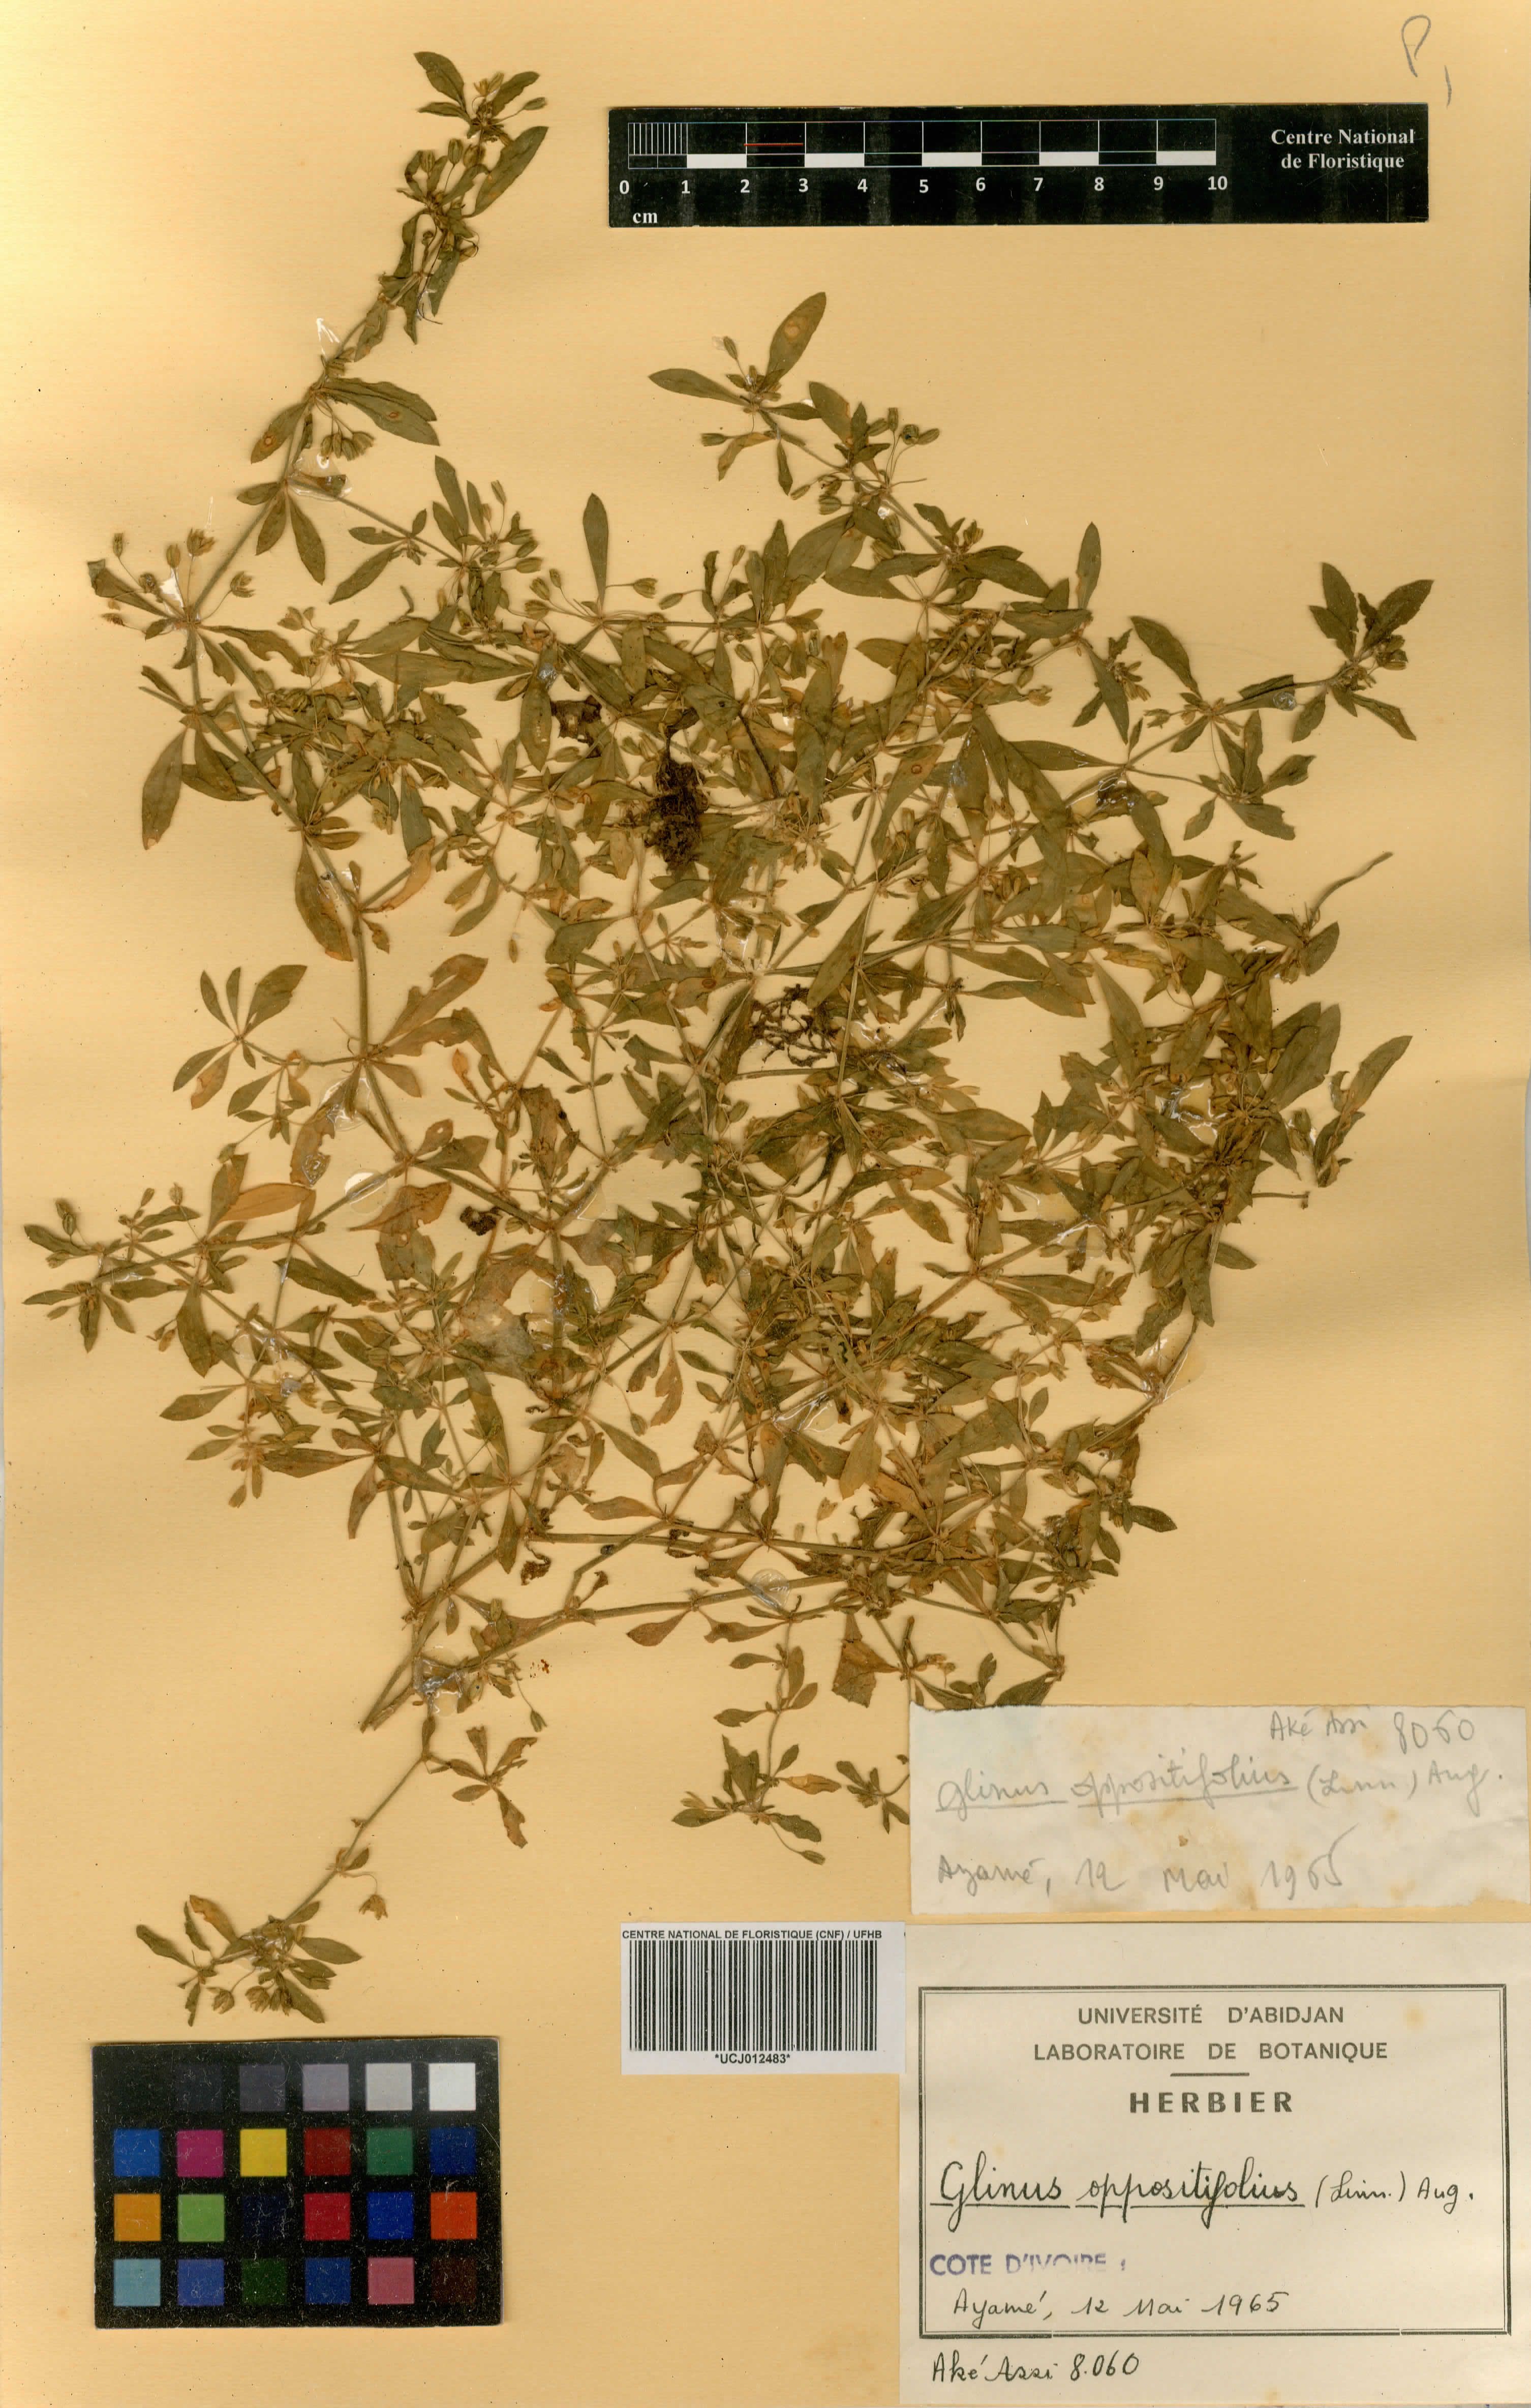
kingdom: Plantae
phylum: Tracheophyta
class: Magnoliopsida
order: Caryophyllales
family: Molluginaceae
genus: Glinus
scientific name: Glinus oppositifolius
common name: Slender carpetweed
